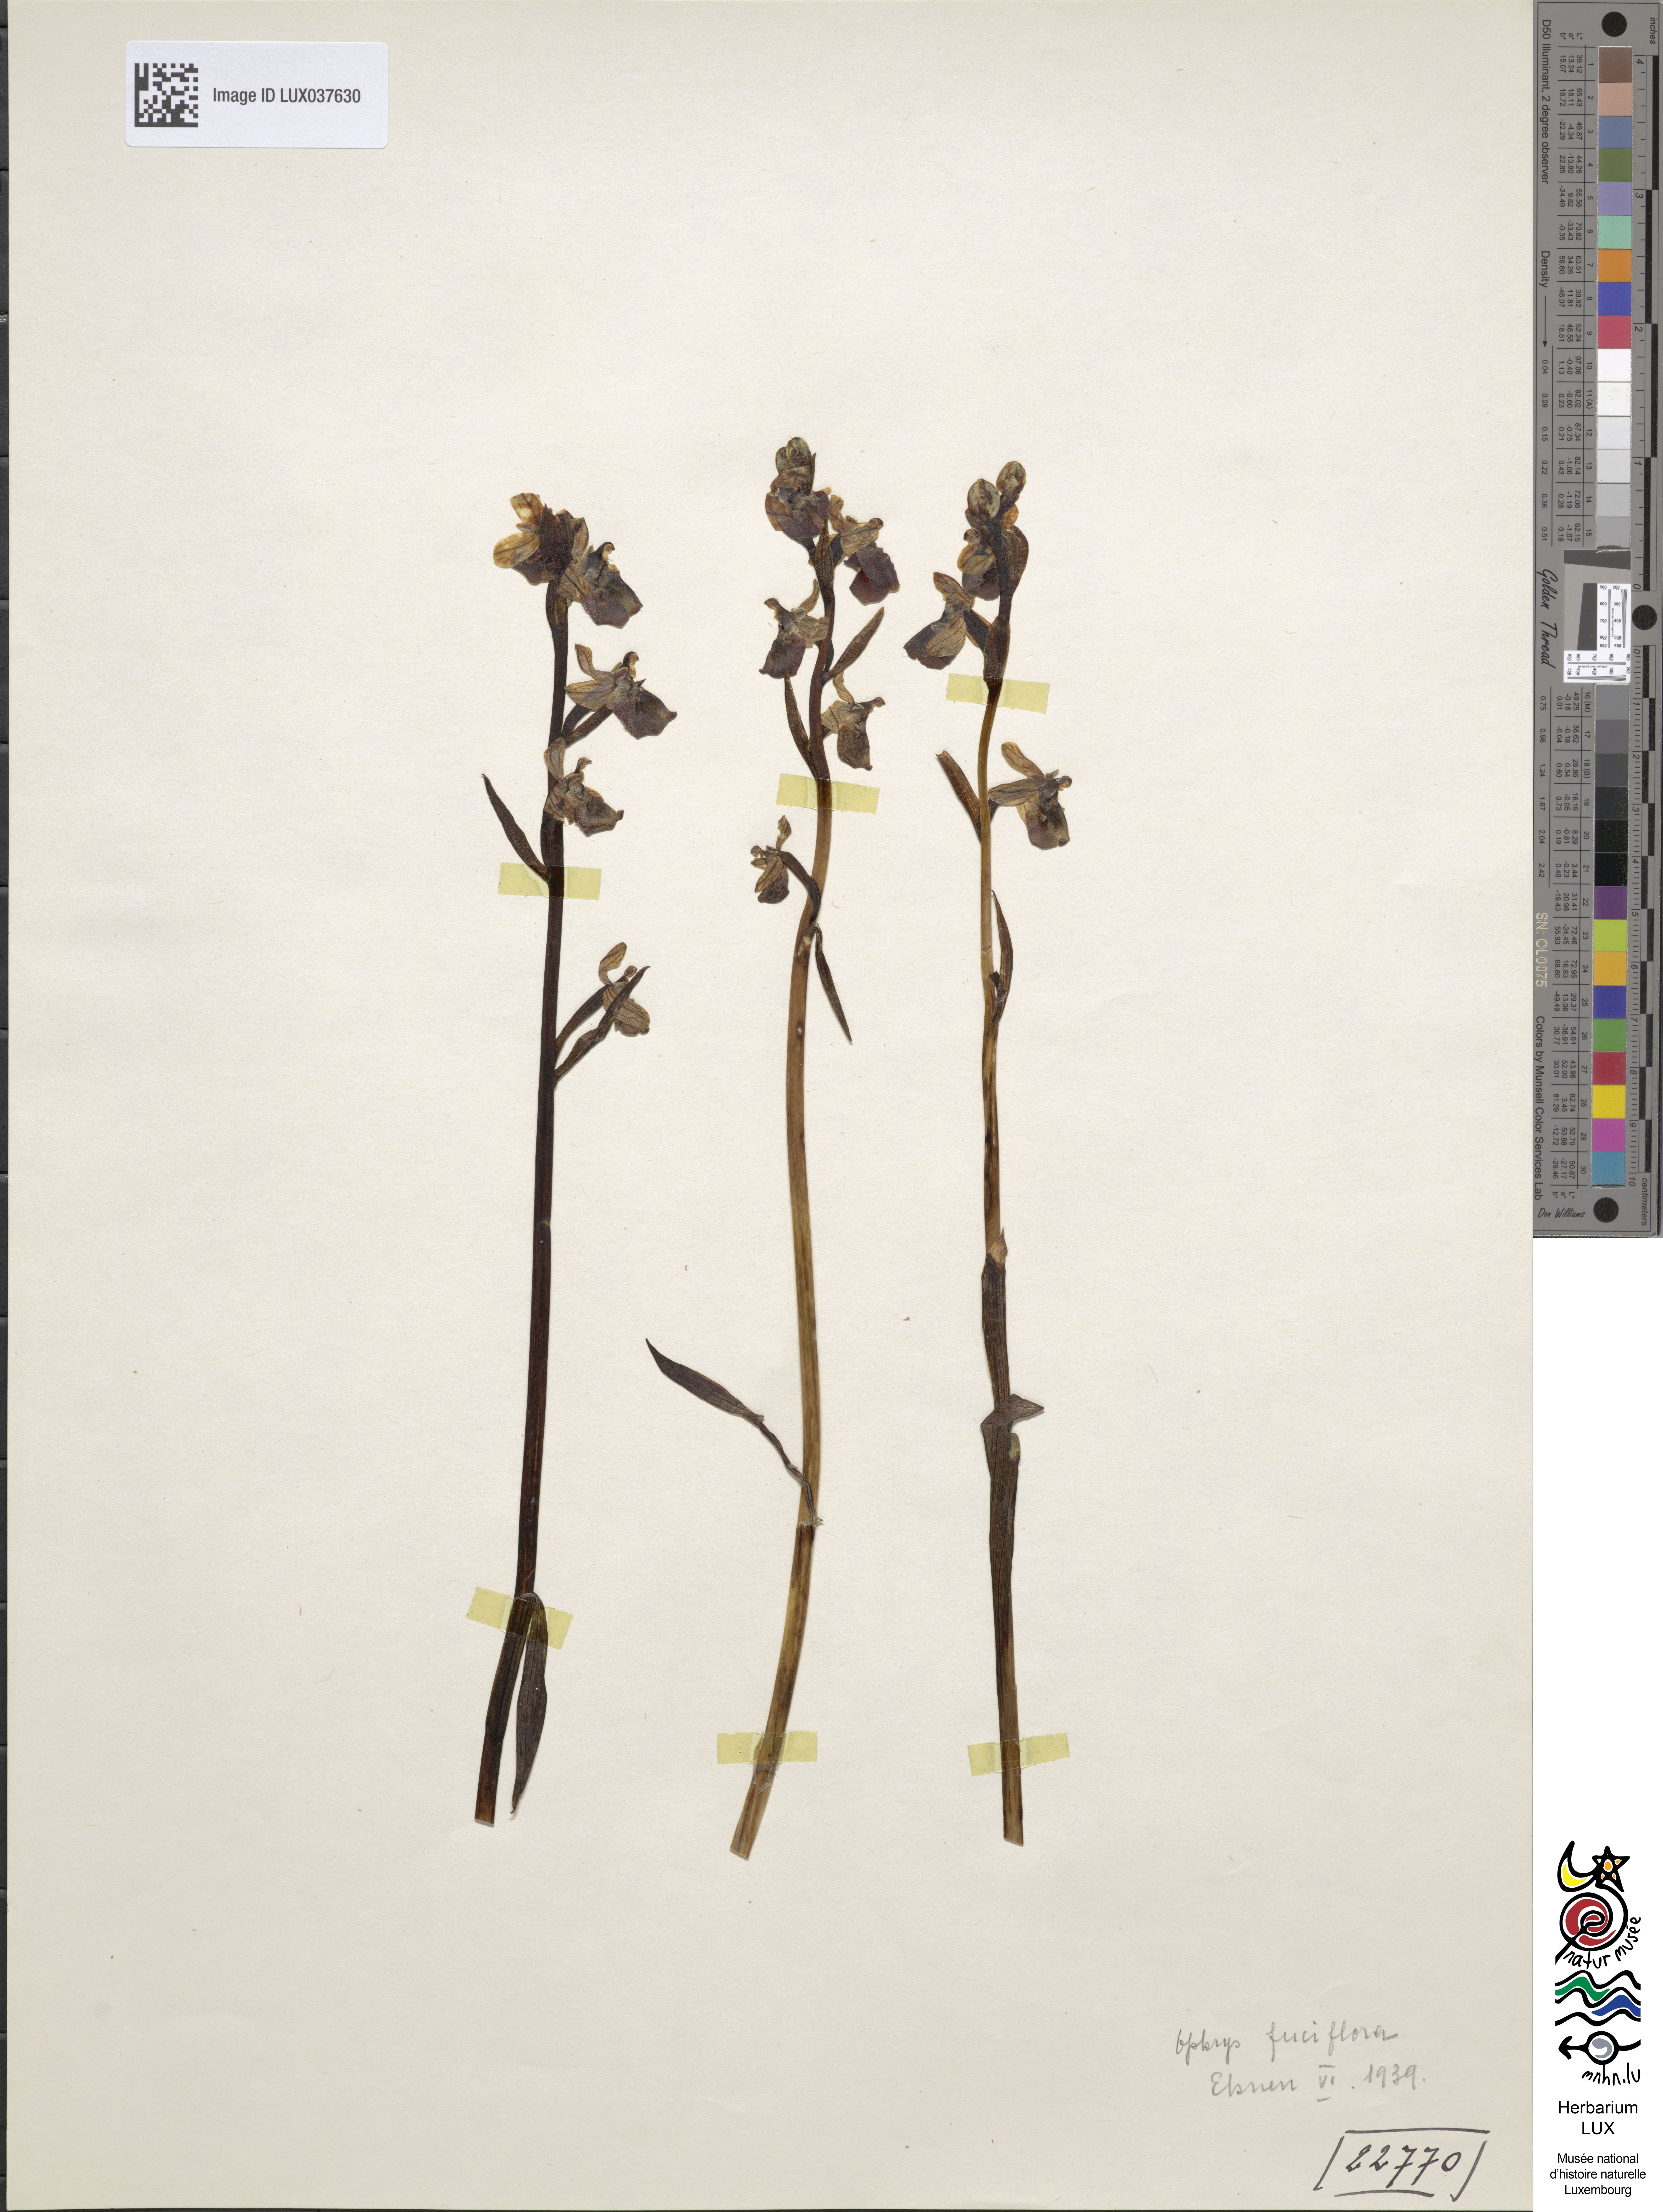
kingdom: Plantae
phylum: Tracheophyta
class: Liliopsida
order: Asparagales
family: Orchidaceae
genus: Ophrys
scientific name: Ophrys holosericea
